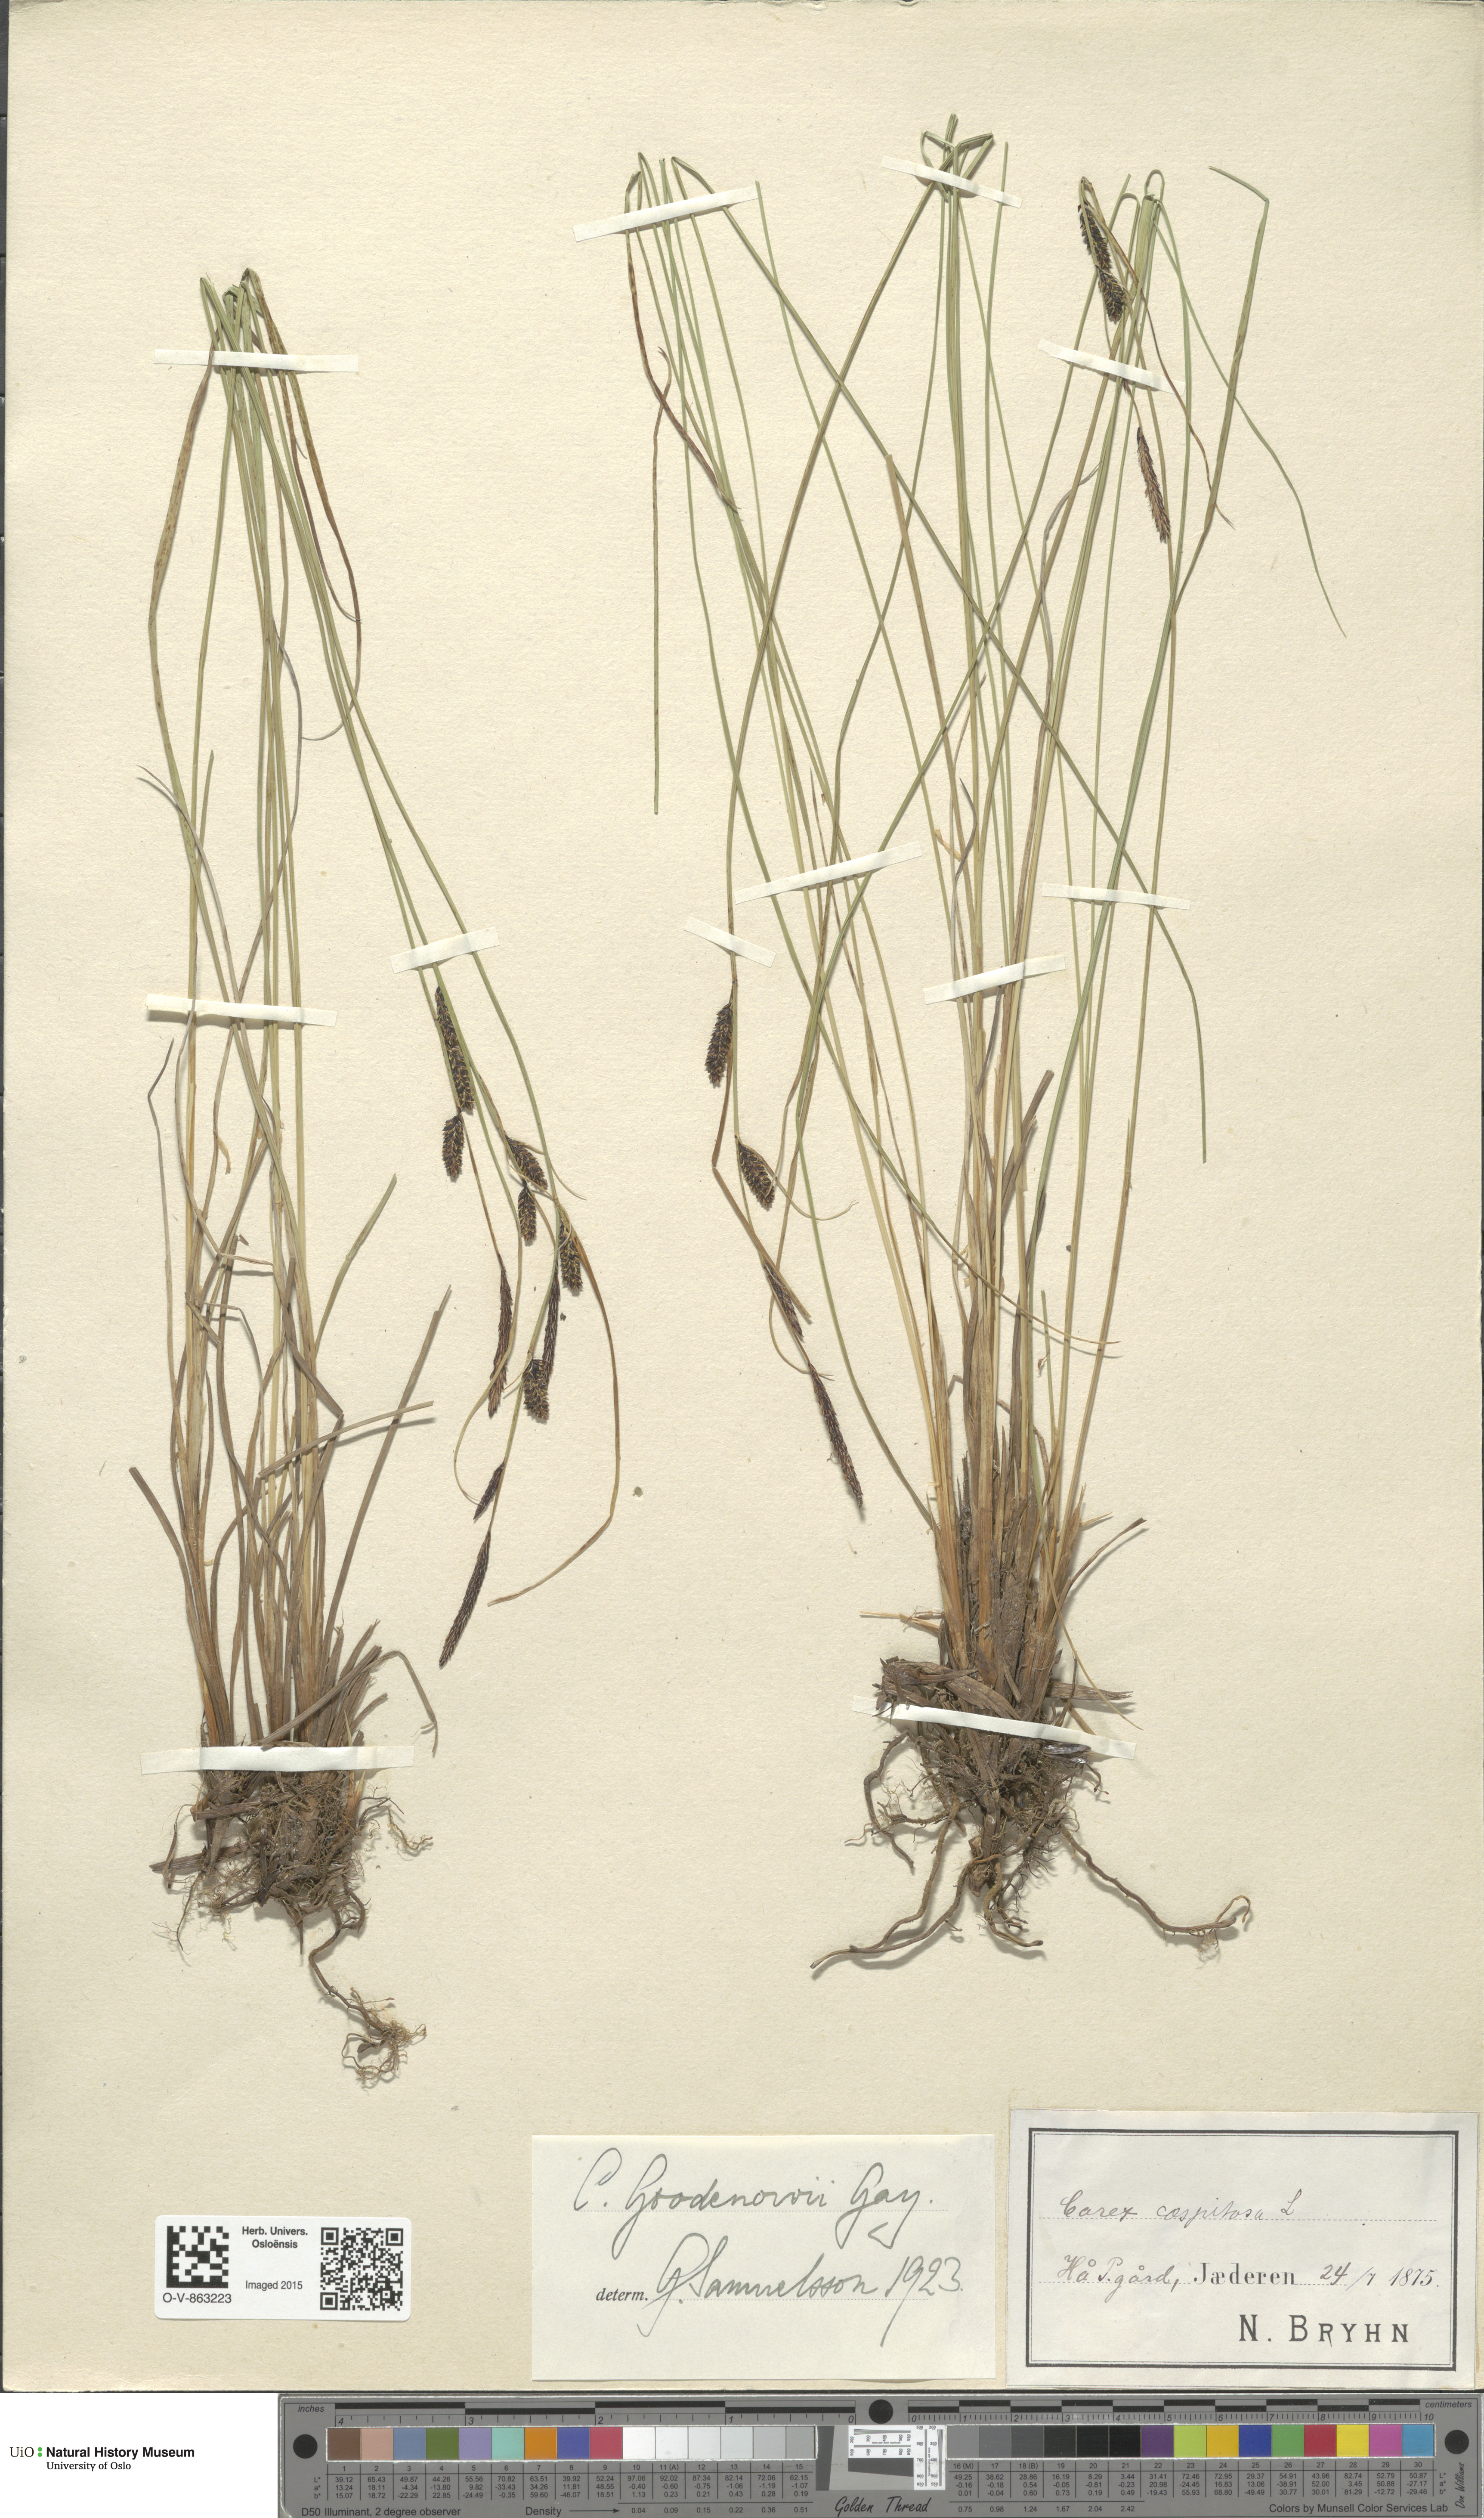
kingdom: Plantae
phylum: Tracheophyta
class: Liliopsida
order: Poales
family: Cyperaceae
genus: Carex
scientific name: Carex nigra
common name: Common sedge
